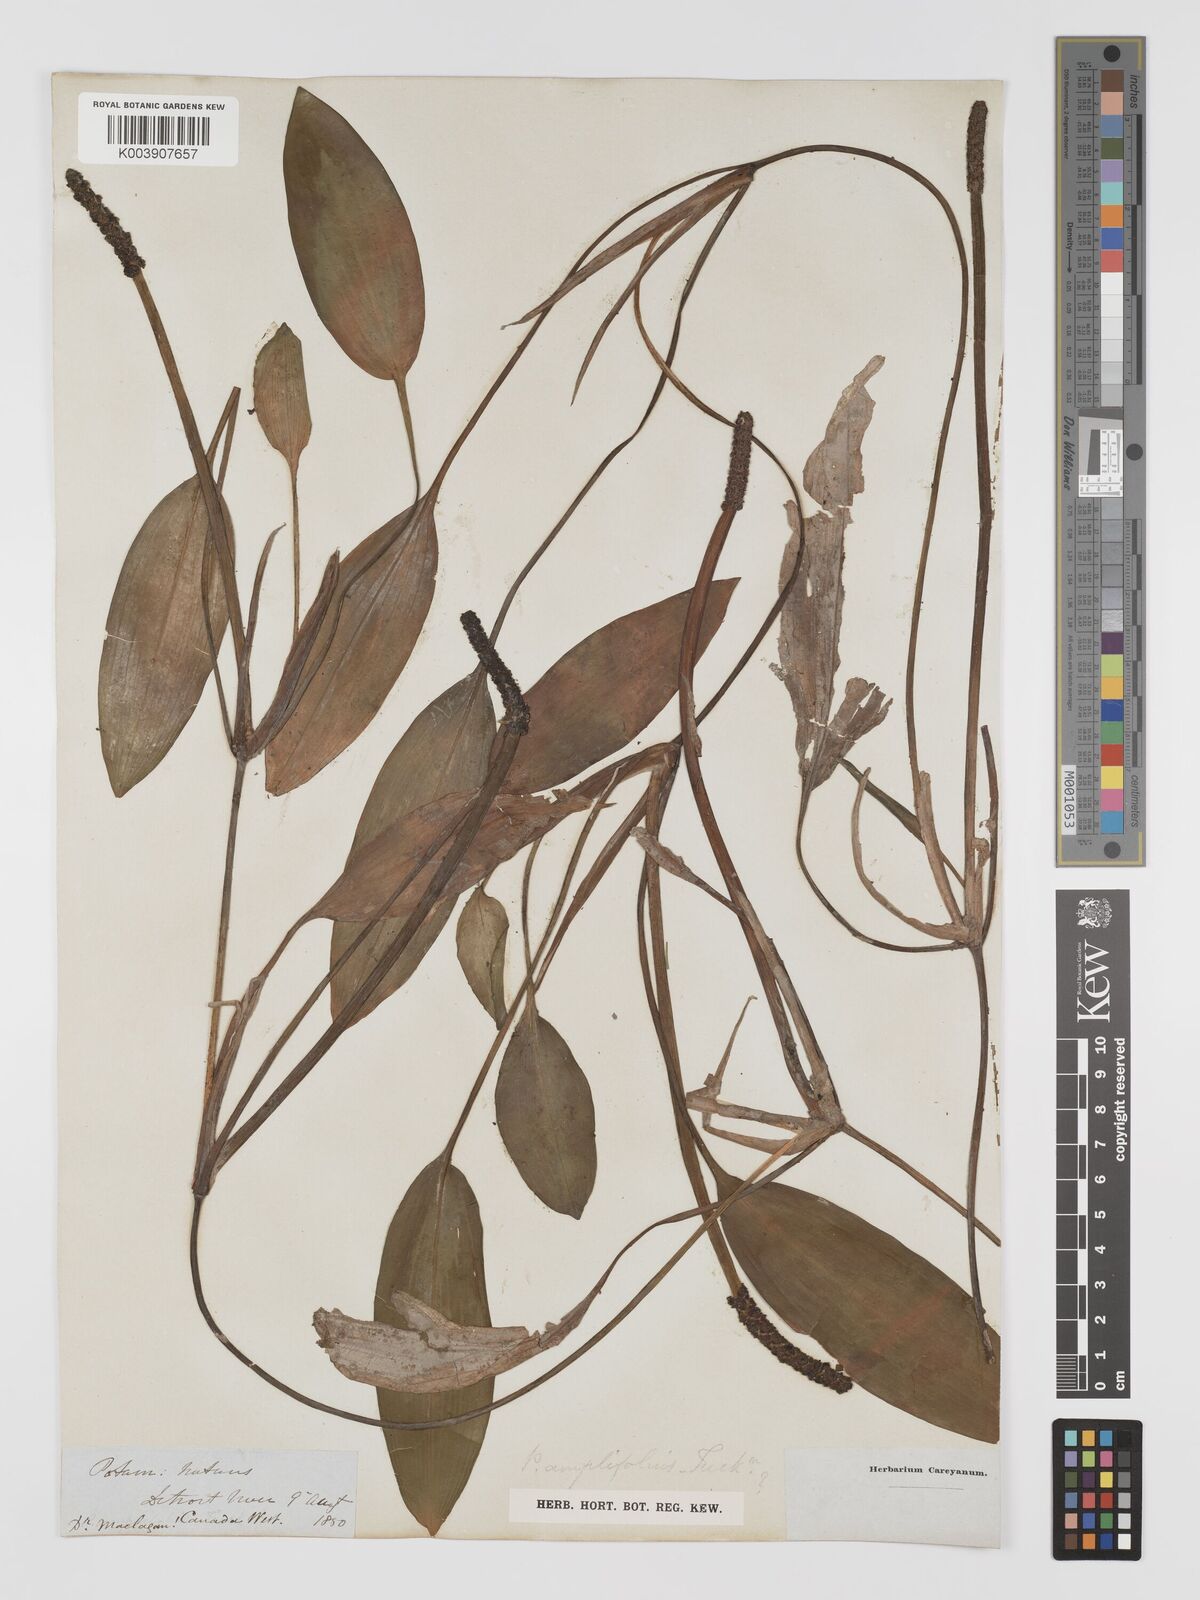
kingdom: Plantae
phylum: Tracheophyta
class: Liliopsida
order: Alismatales
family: Potamogetonaceae
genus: Potamogeton
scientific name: Potamogeton amplifolius
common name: Broad-leaved pondweed
